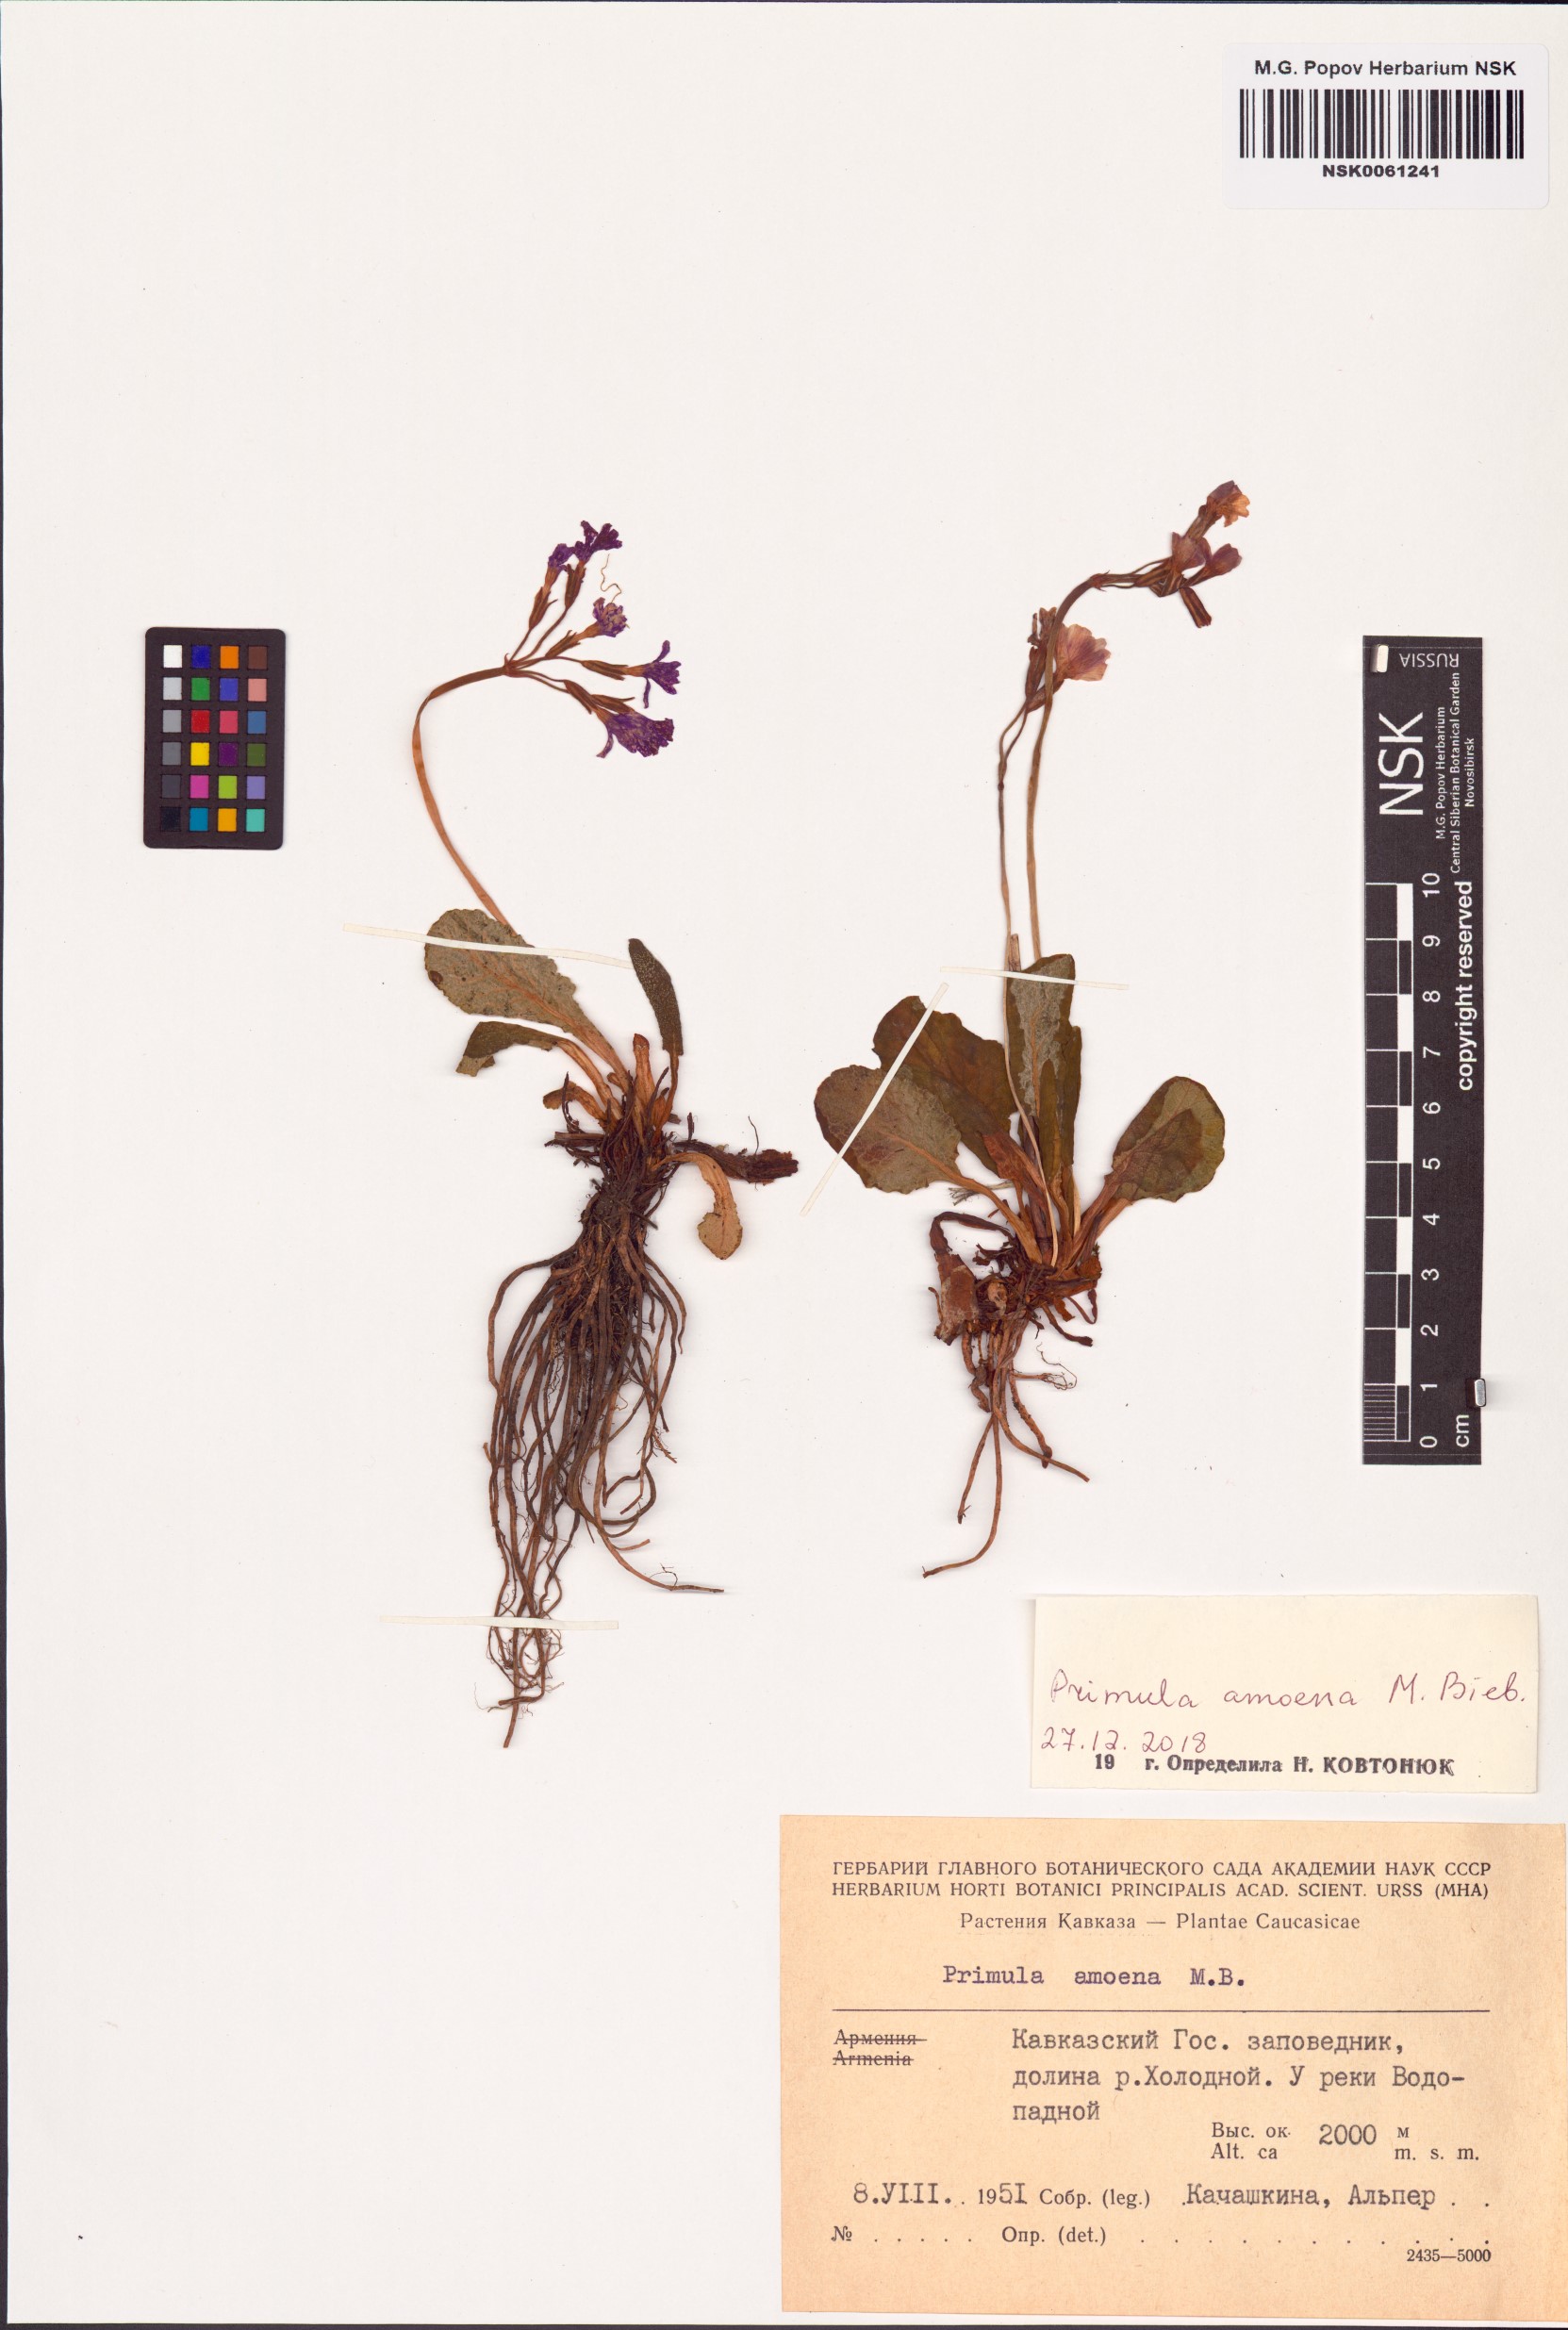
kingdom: Plantae
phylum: Tracheophyta
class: Magnoliopsida
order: Ericales
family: Primulaceae
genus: Primula
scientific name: Primula amoena
